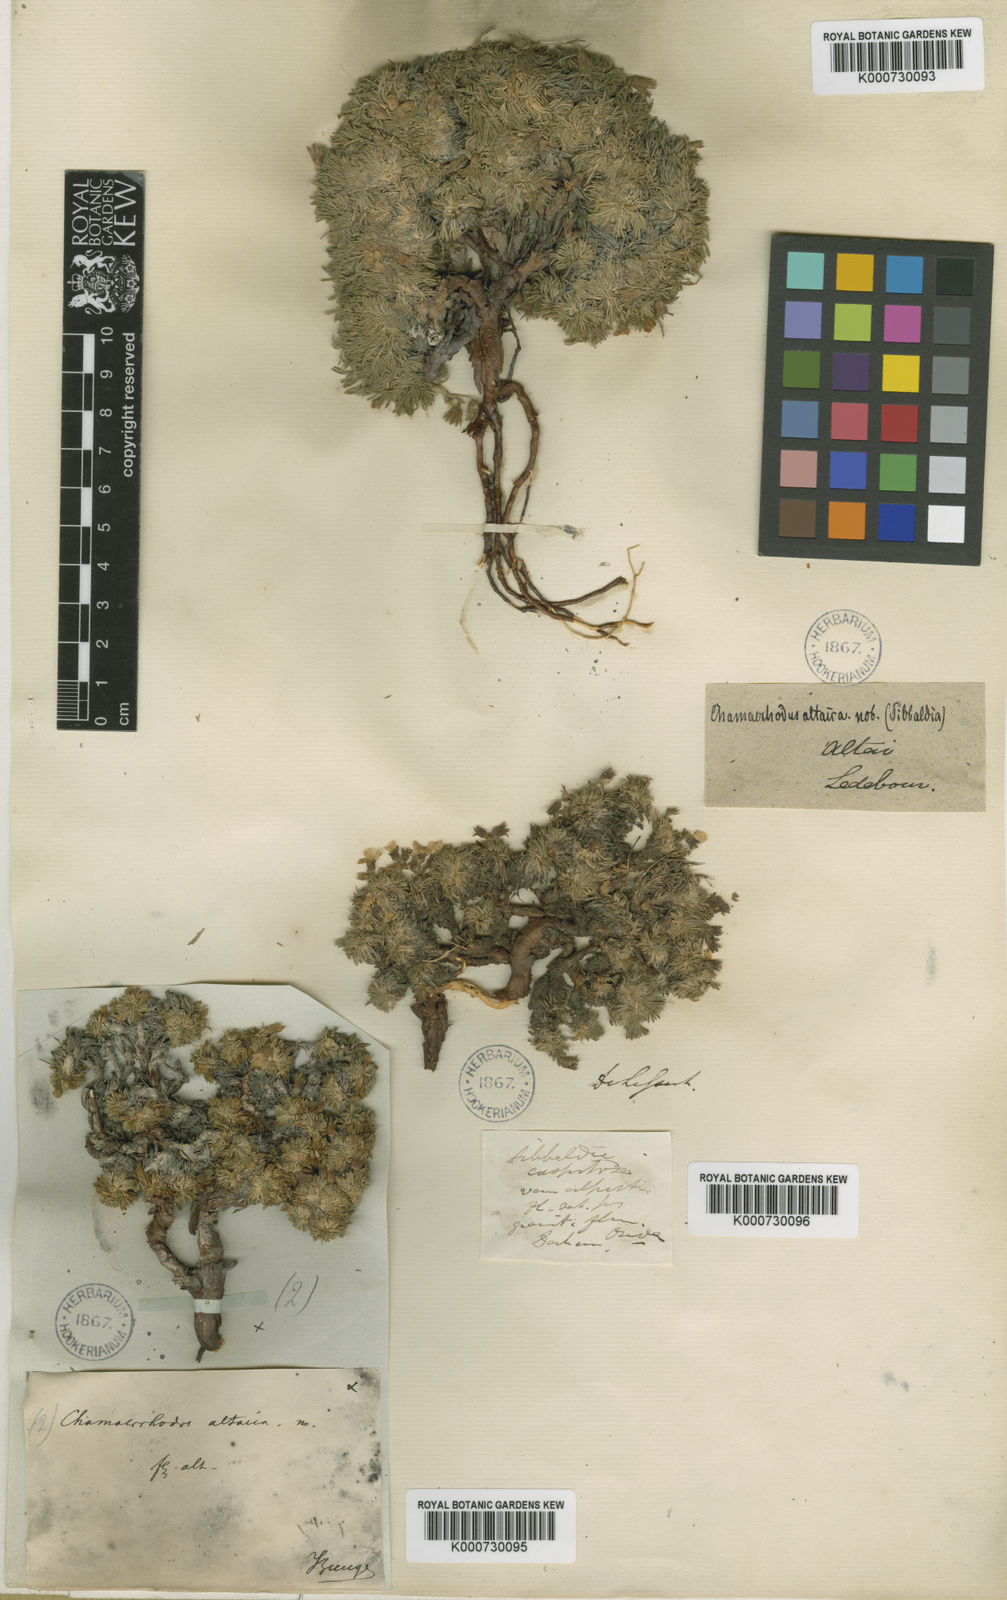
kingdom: Plantae
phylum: Tracheophyta
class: Magnoliopsida
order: Rosales
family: Rosaceae
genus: Chamaerhodos
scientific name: Chamaerhodos altaica
